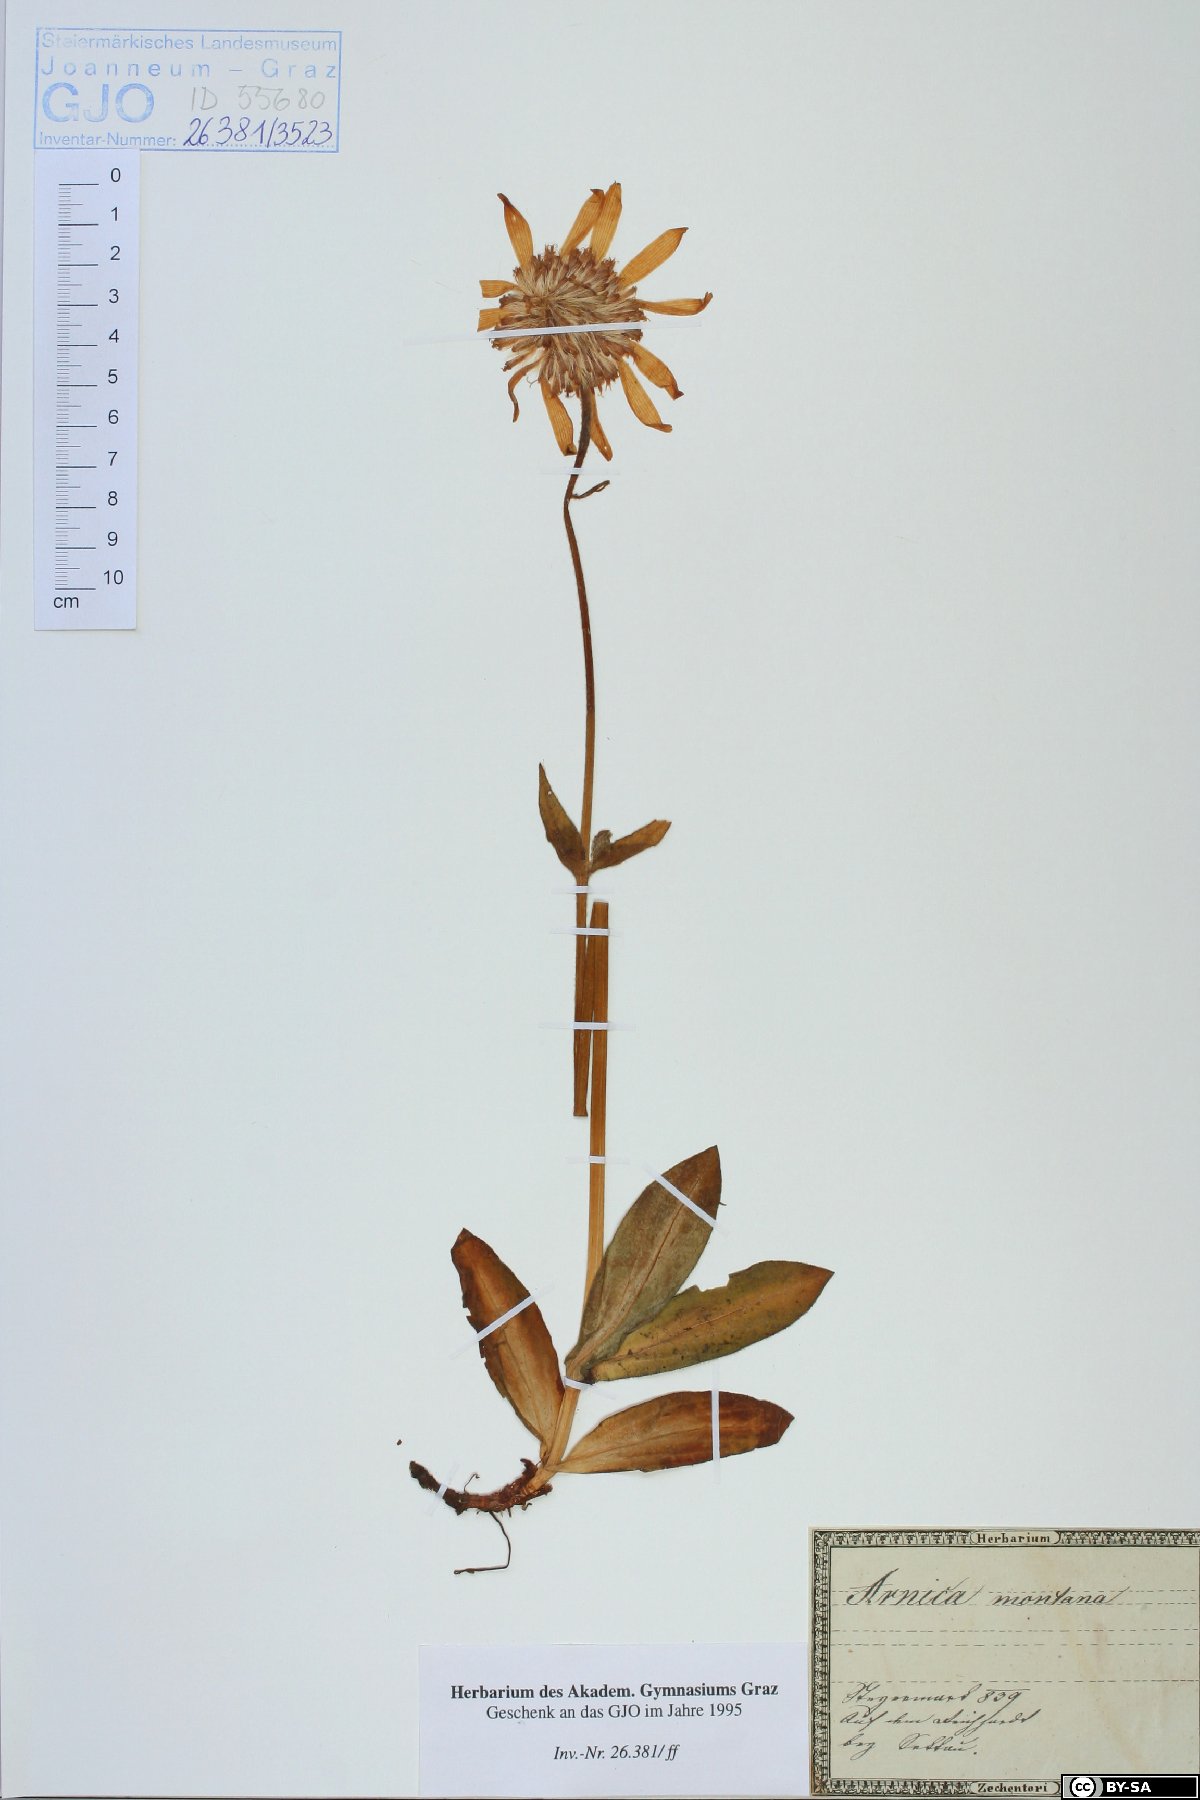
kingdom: Plantae
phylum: Tracheophyta
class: Magnoliopsida
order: Asterales
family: Asteraceae
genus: Arnica
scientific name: Arnica montana
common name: Leopard's bane
